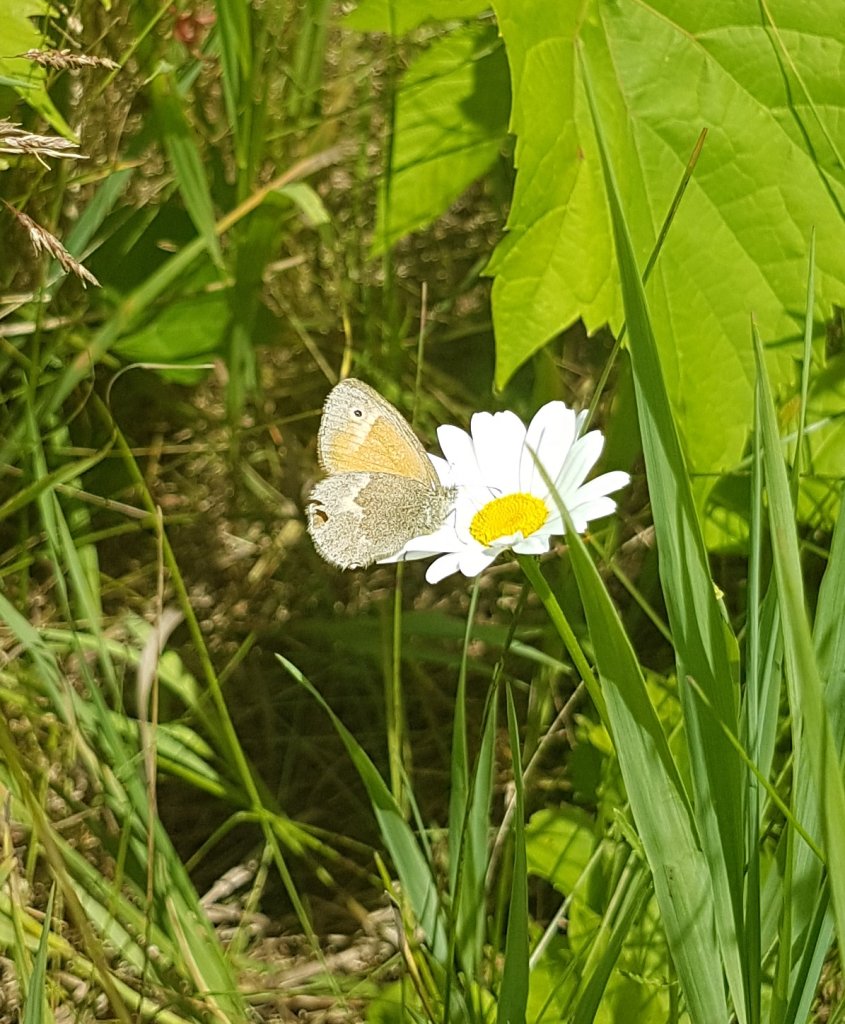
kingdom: Animalia
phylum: Arthropoda
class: Insecta
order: Lepidoptera
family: Nymphalidae
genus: Coenonympha
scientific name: Coenonympha tullia
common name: Large Heath
